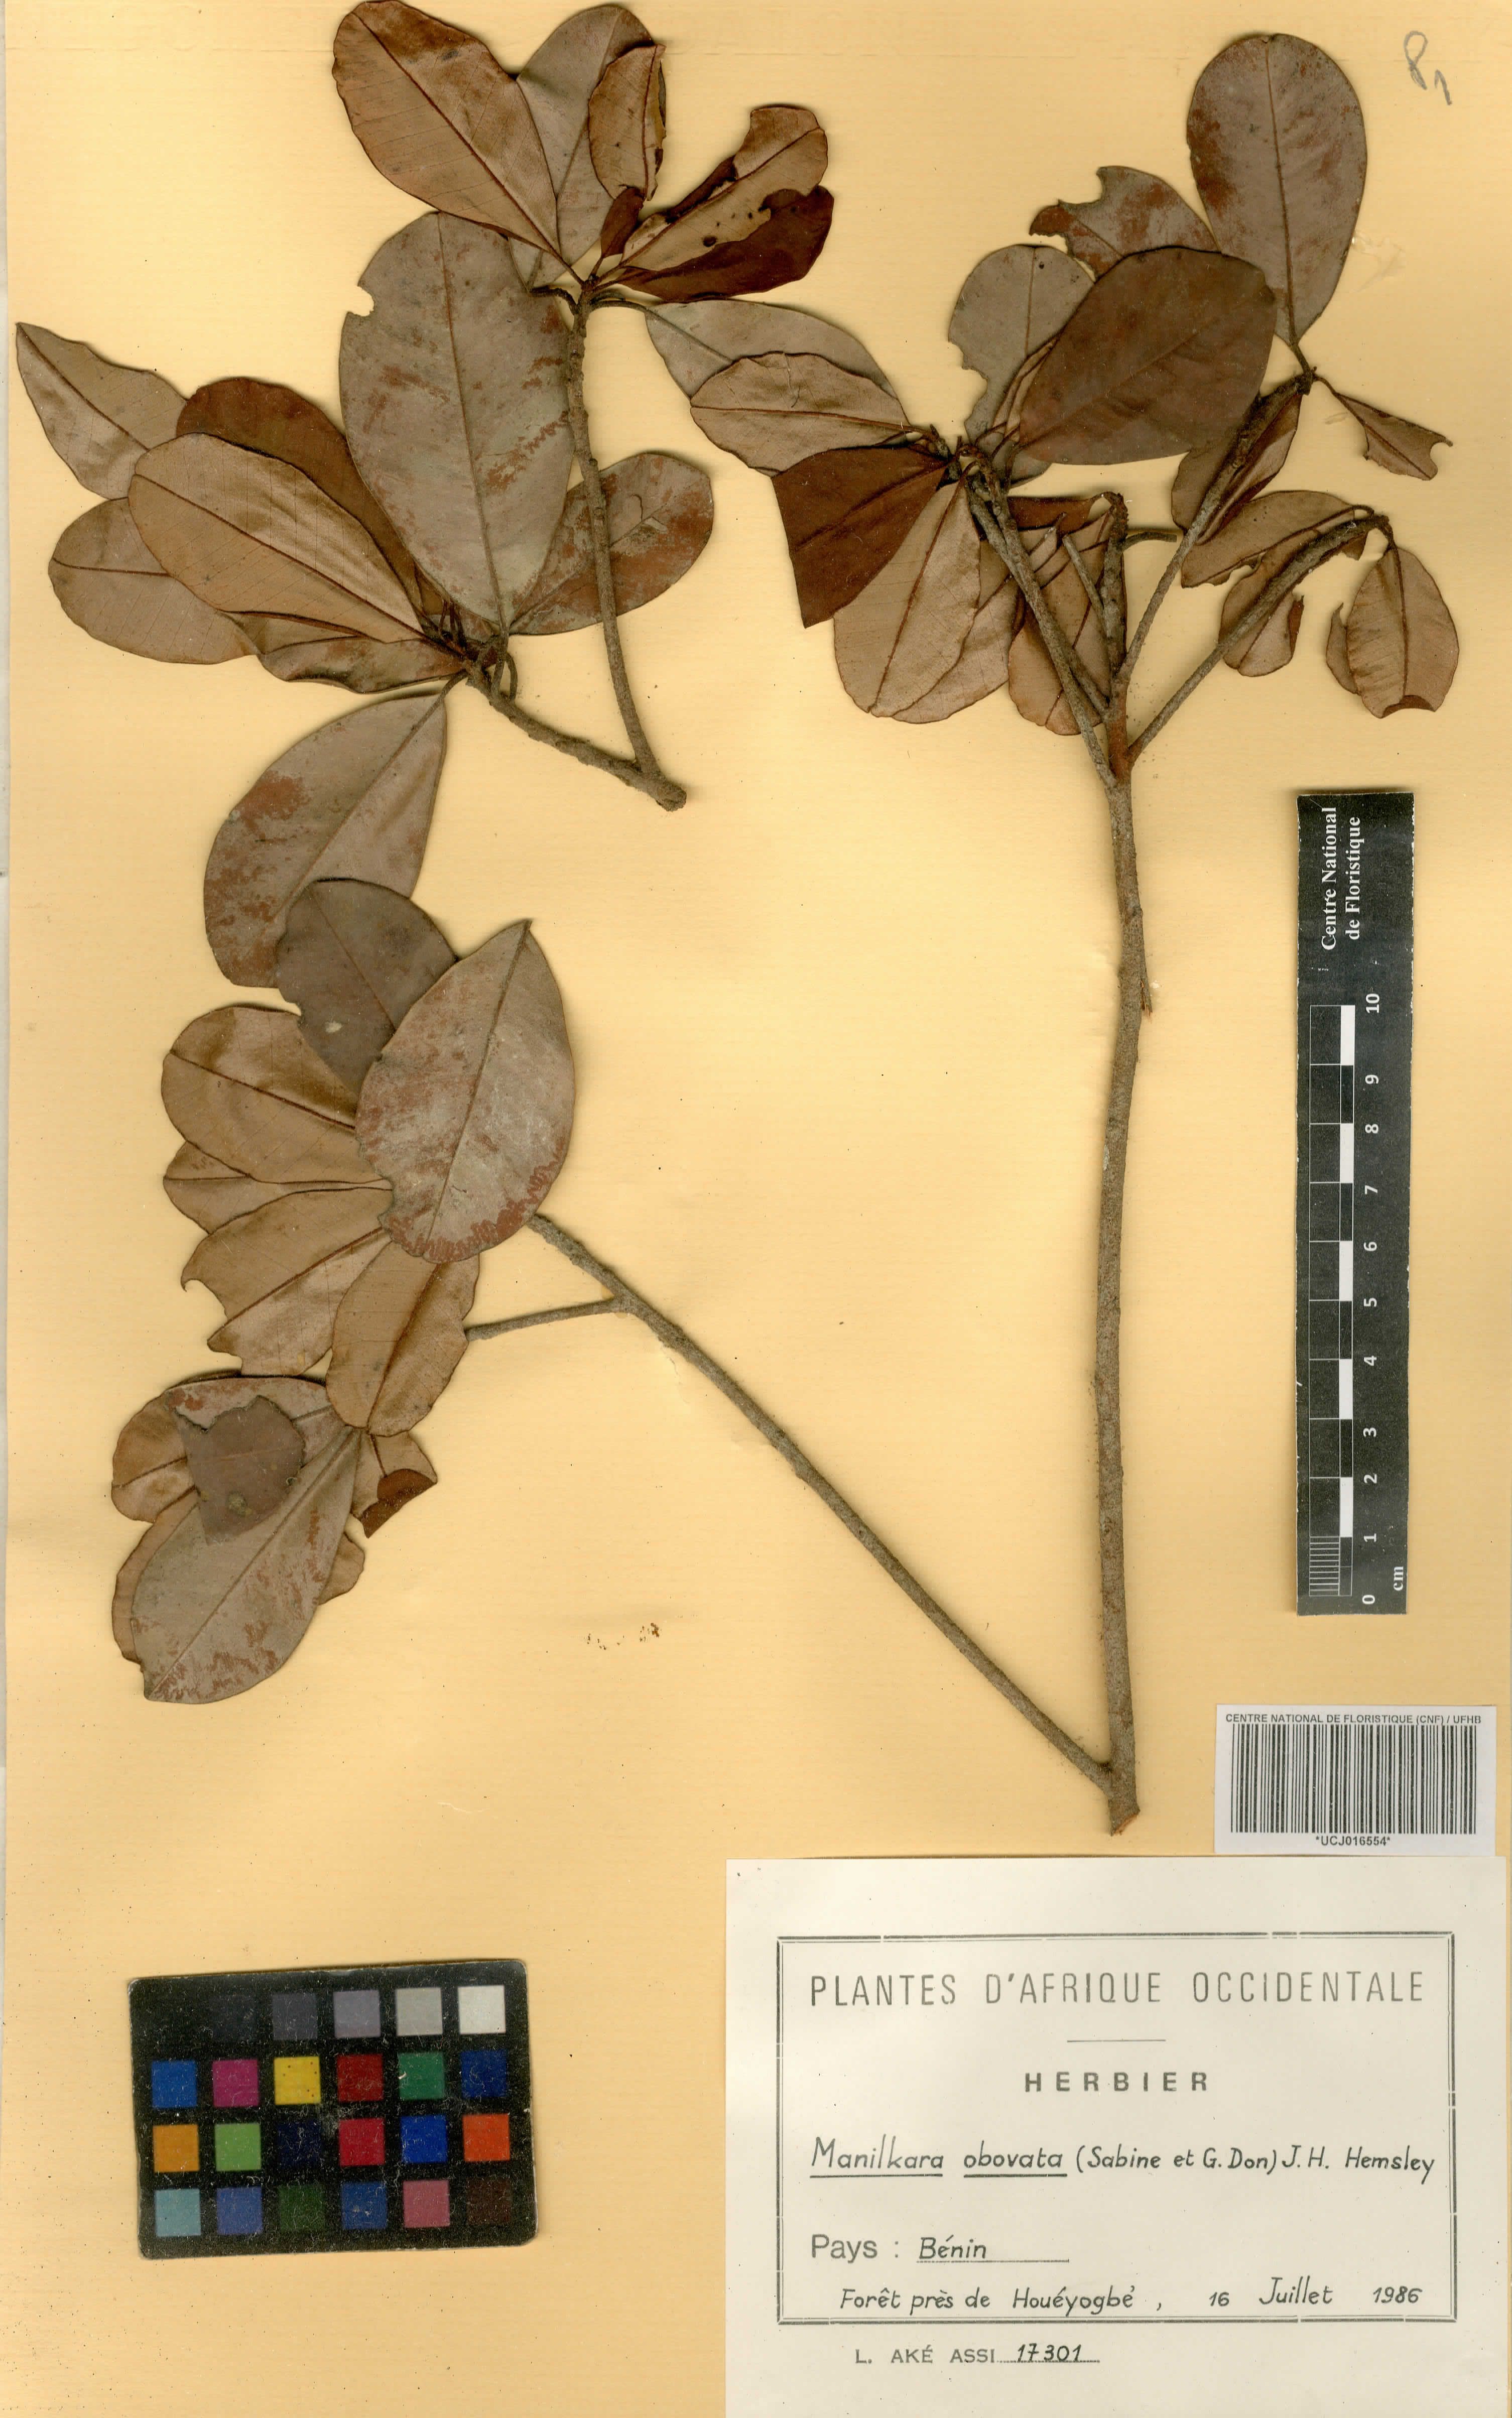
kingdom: Plantae
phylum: Tracheophyta
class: Magnoliopsida
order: Ericales
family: Sapotaceae
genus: Manilkara
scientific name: Manilkara obovata
